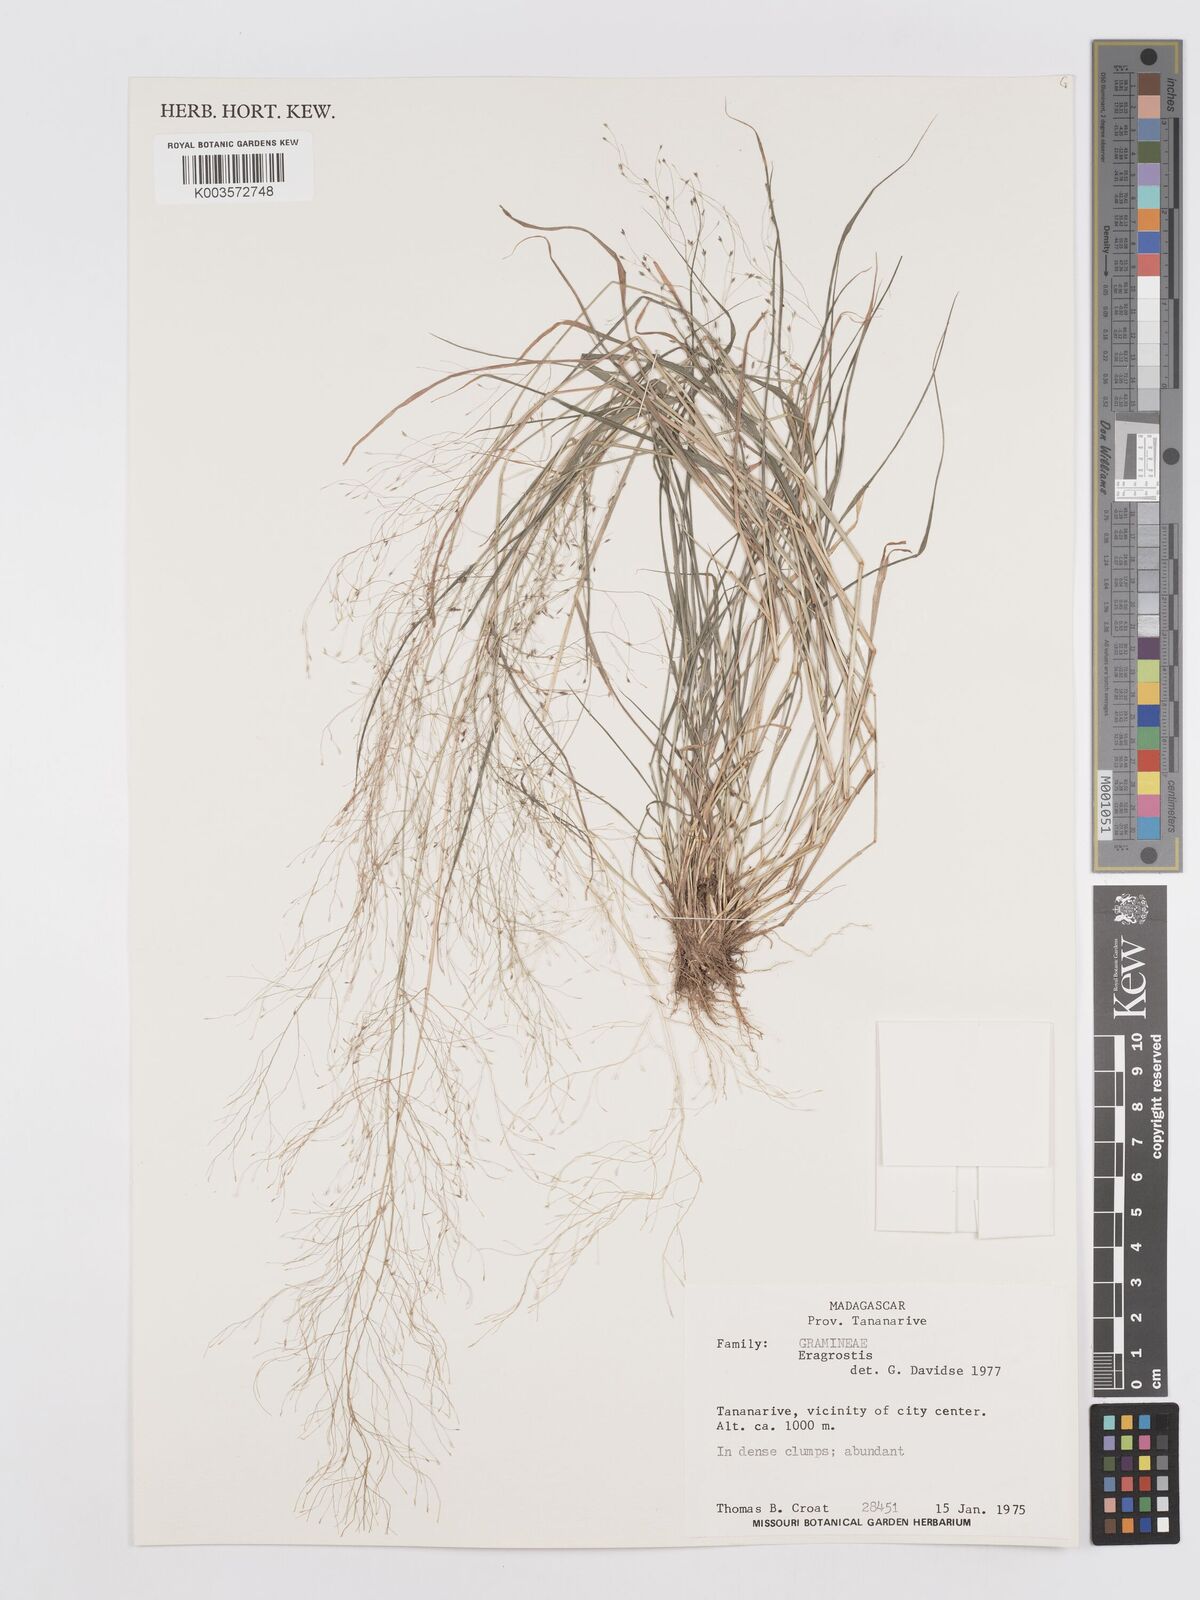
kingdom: Plantae
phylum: Tracheophyta
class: Liliopsida
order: Poales
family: Poaceae
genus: Eragrostis
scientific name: Eragrostis
